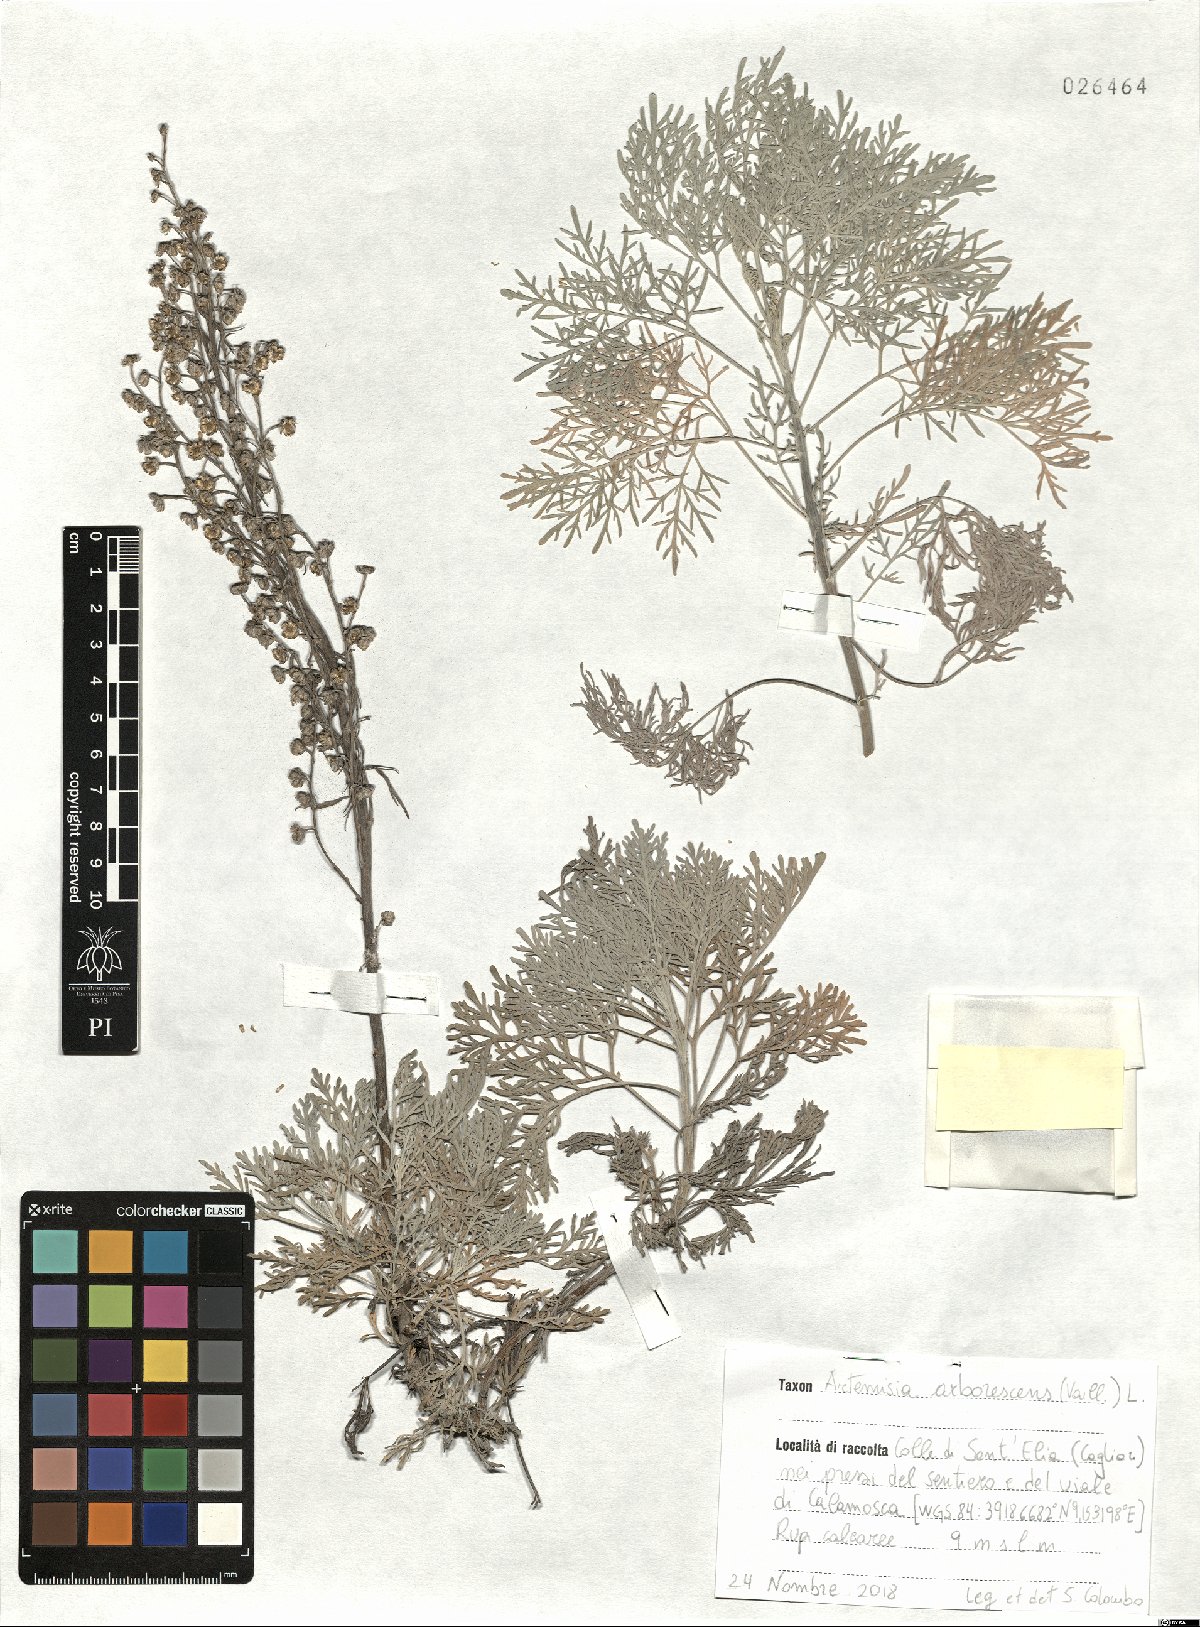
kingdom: Plantae
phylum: Tracheophyta
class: Magnoliopsida
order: Asterales
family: Asteraceae
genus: Artemisia
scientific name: Artemisia arborescens
